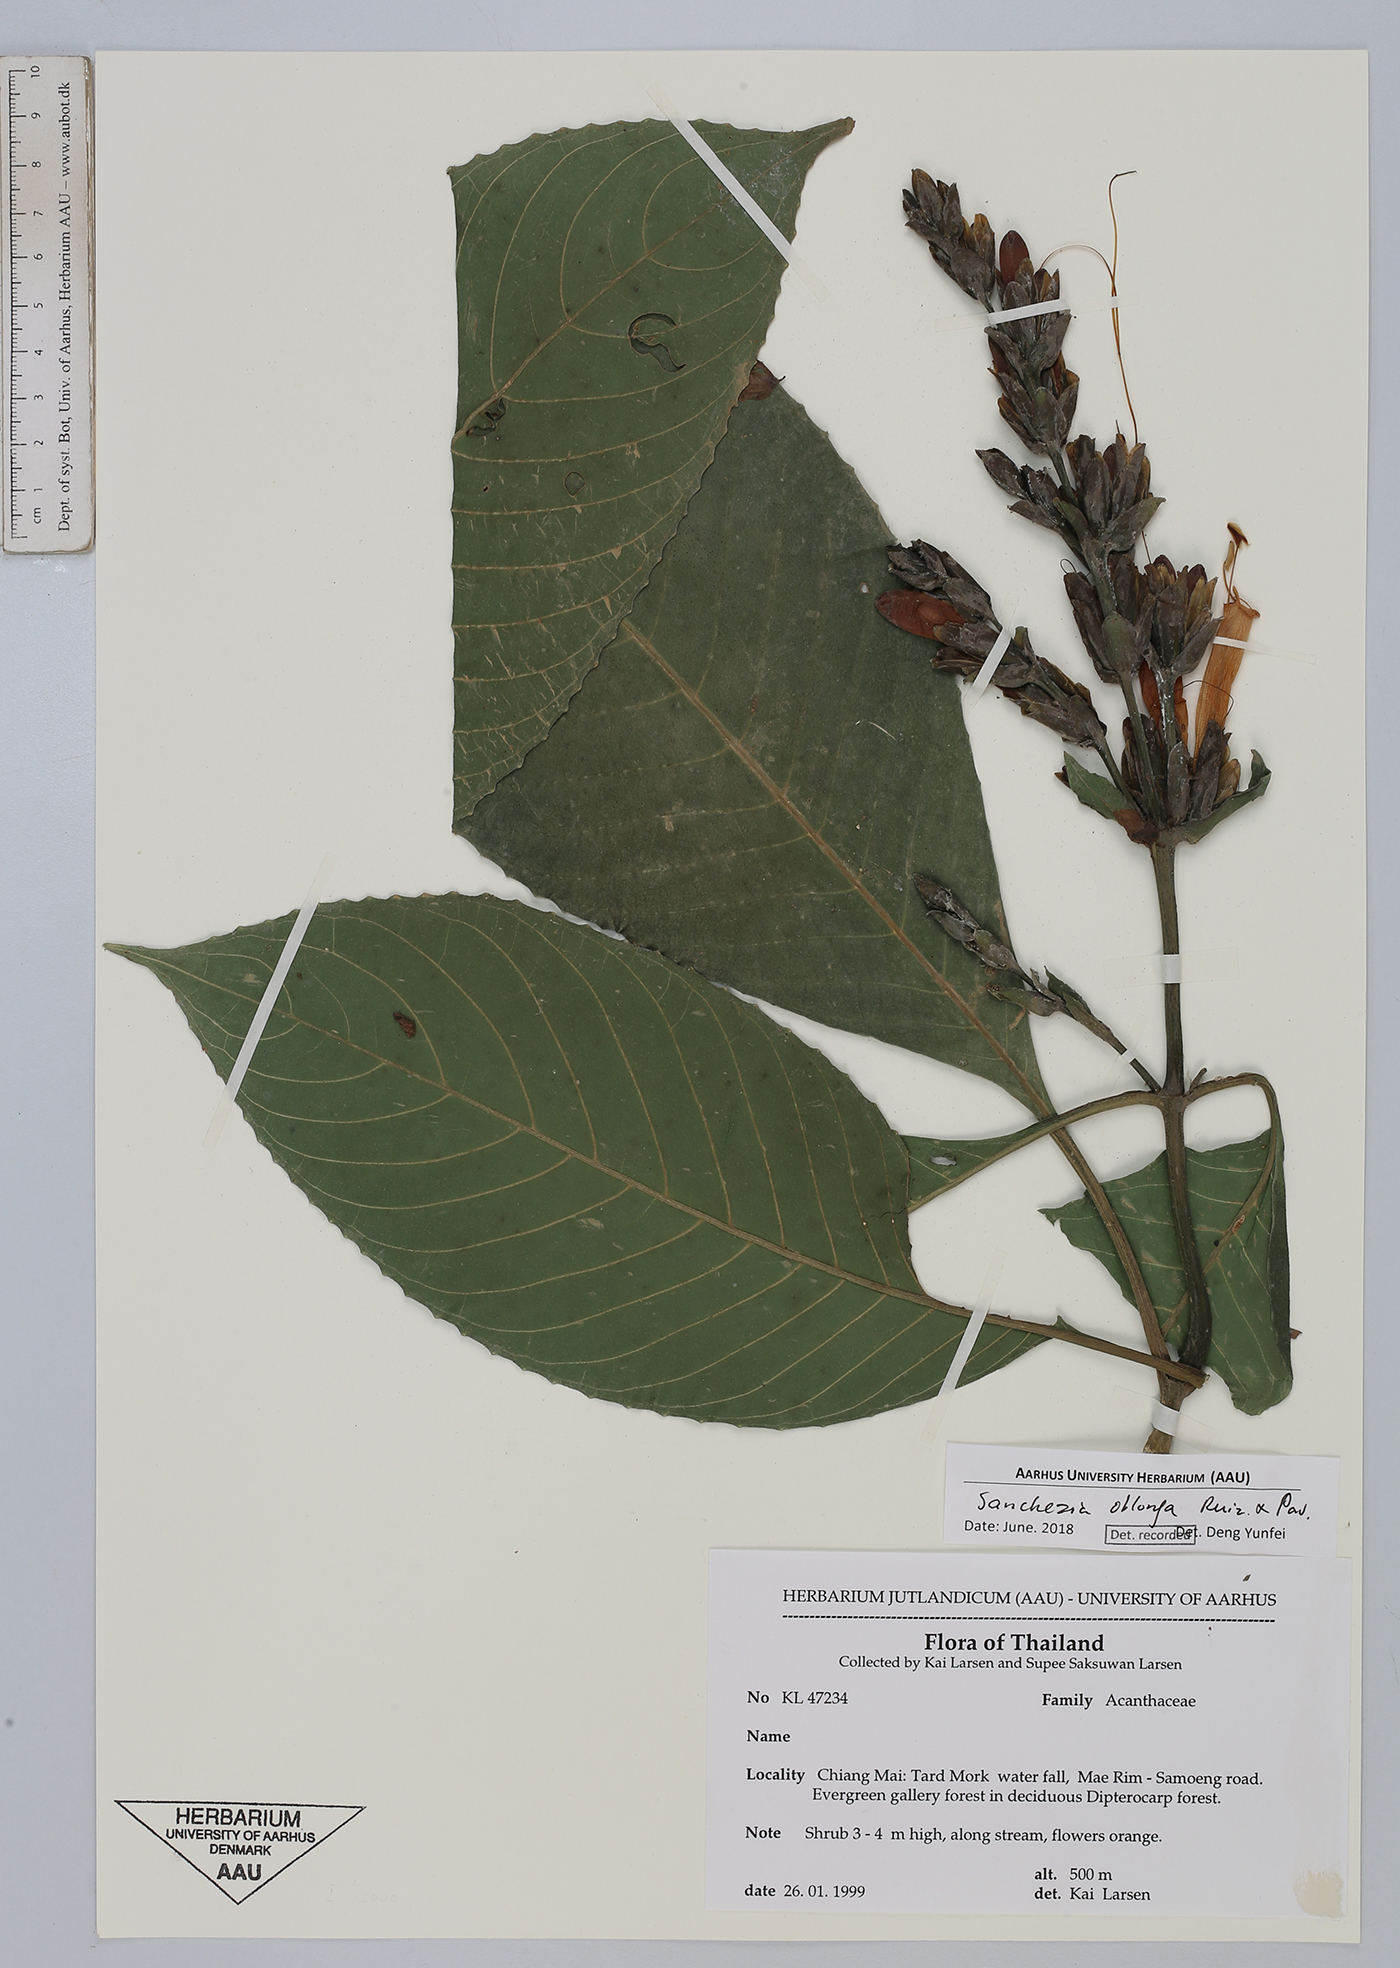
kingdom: Plantae
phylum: Tracheophyta
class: Magnoliopsida
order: Lamiales
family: Acanthaceae
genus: Sanchezia
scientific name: Sanchezia oblonga
